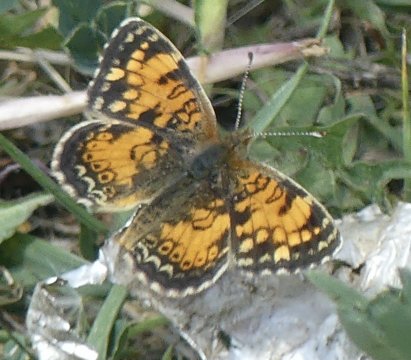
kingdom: Animalia
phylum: Arthropoda
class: Insecta
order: Lepidoptera
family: Nymphalidae
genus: Phyciodes
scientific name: Phyciodes
